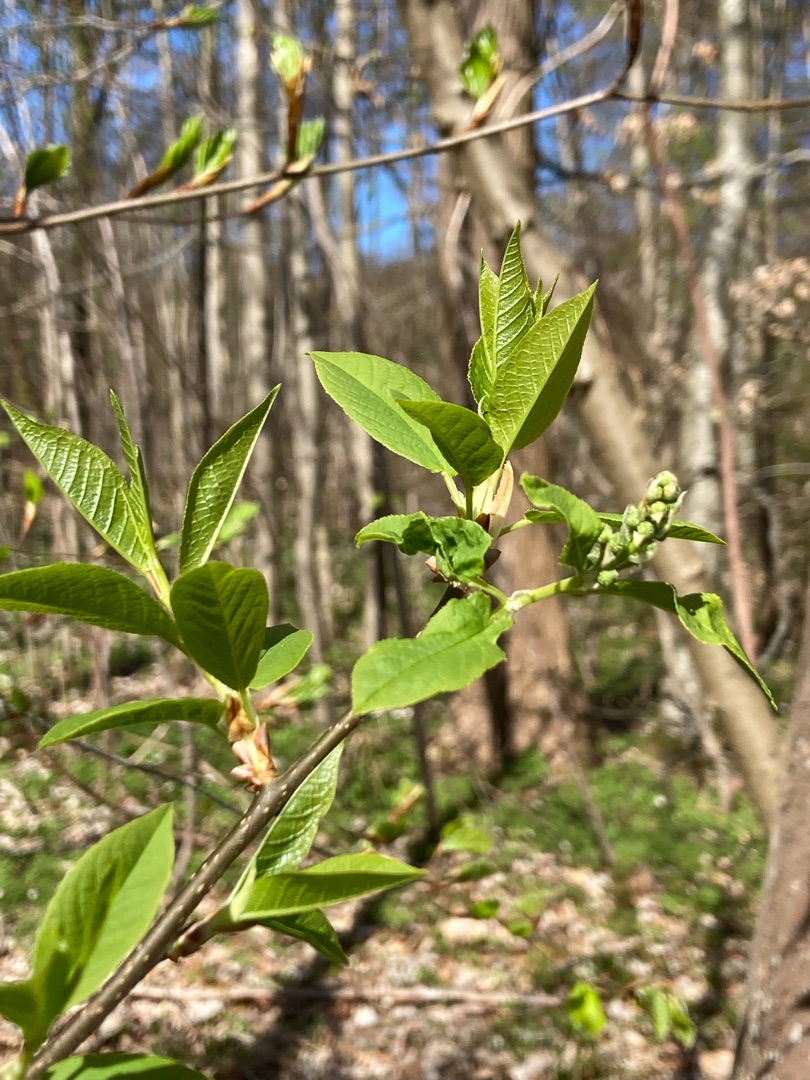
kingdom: Plantae
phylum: Tracheophyta
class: Magnoliopsida
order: Rosales
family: Rosaceae
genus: Prunus
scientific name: Prunus padus
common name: Almindelig hæg
